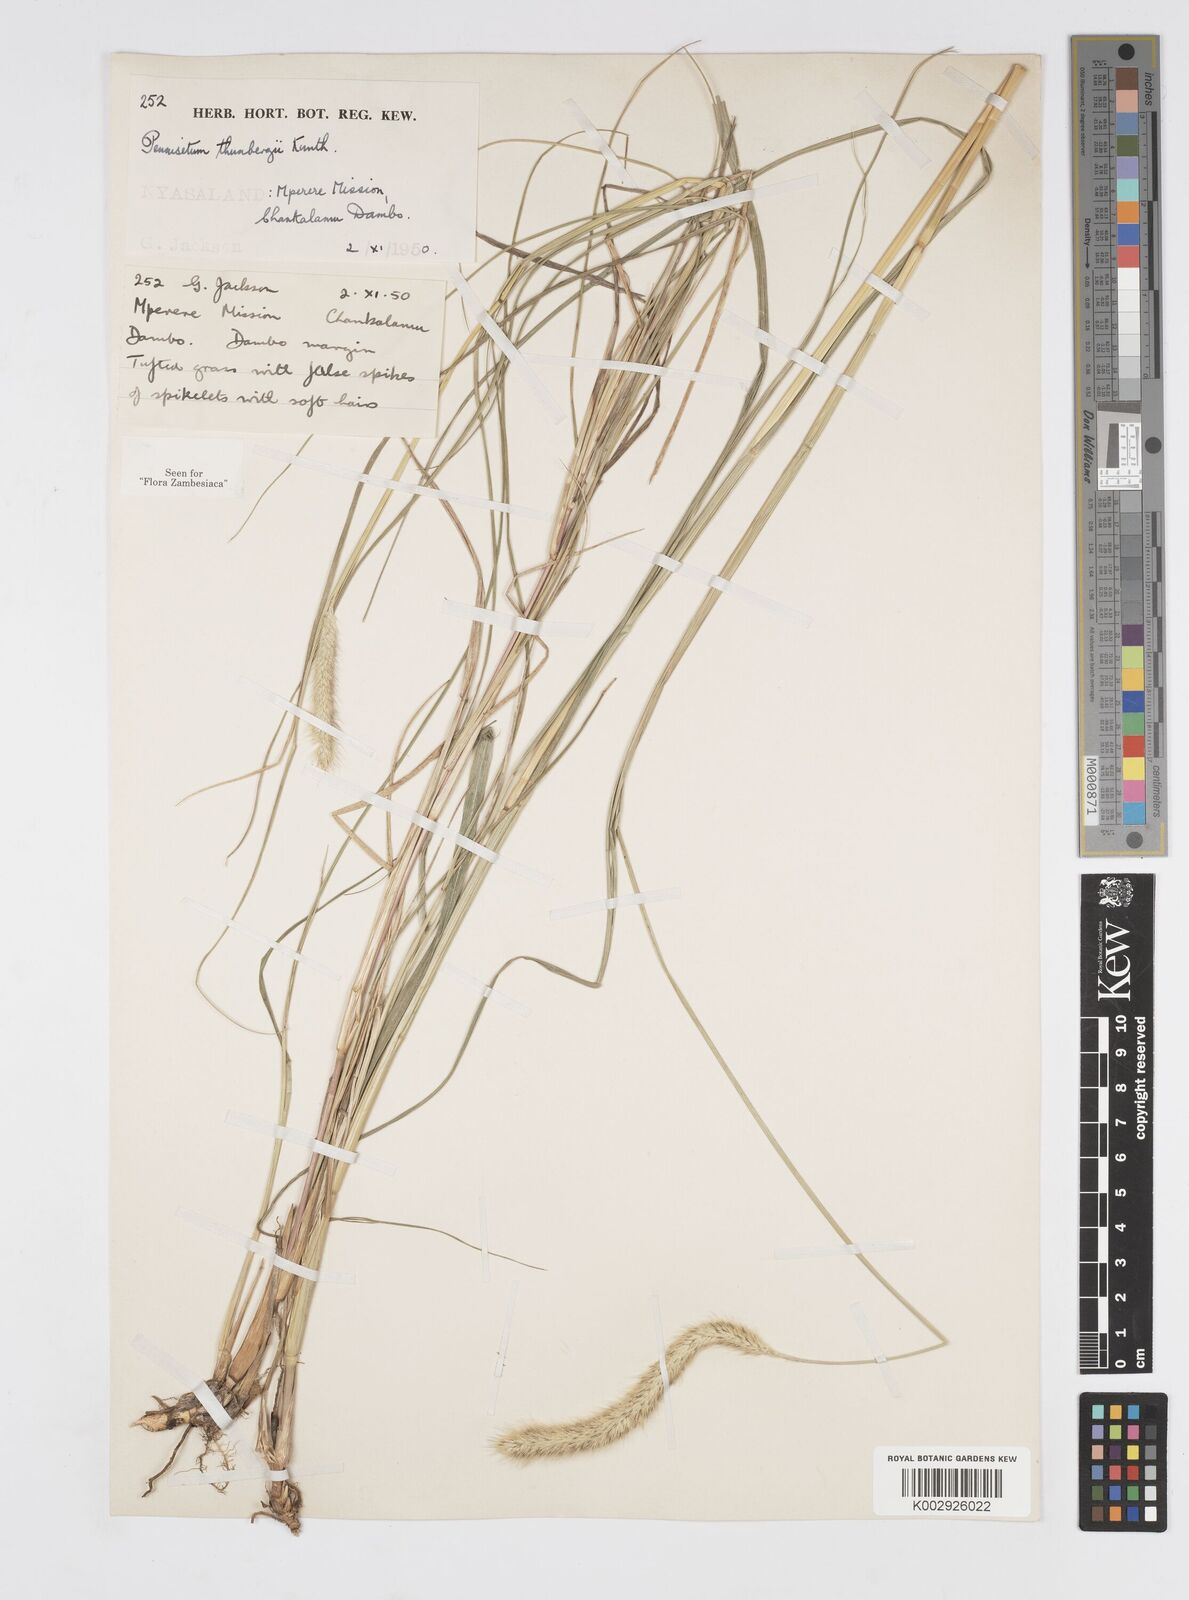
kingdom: Plantae
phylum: Tracheophyta
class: Liliopsida
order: Poales
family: Poaceae
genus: Cenchrus
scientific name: Cenchrus geniculatus
